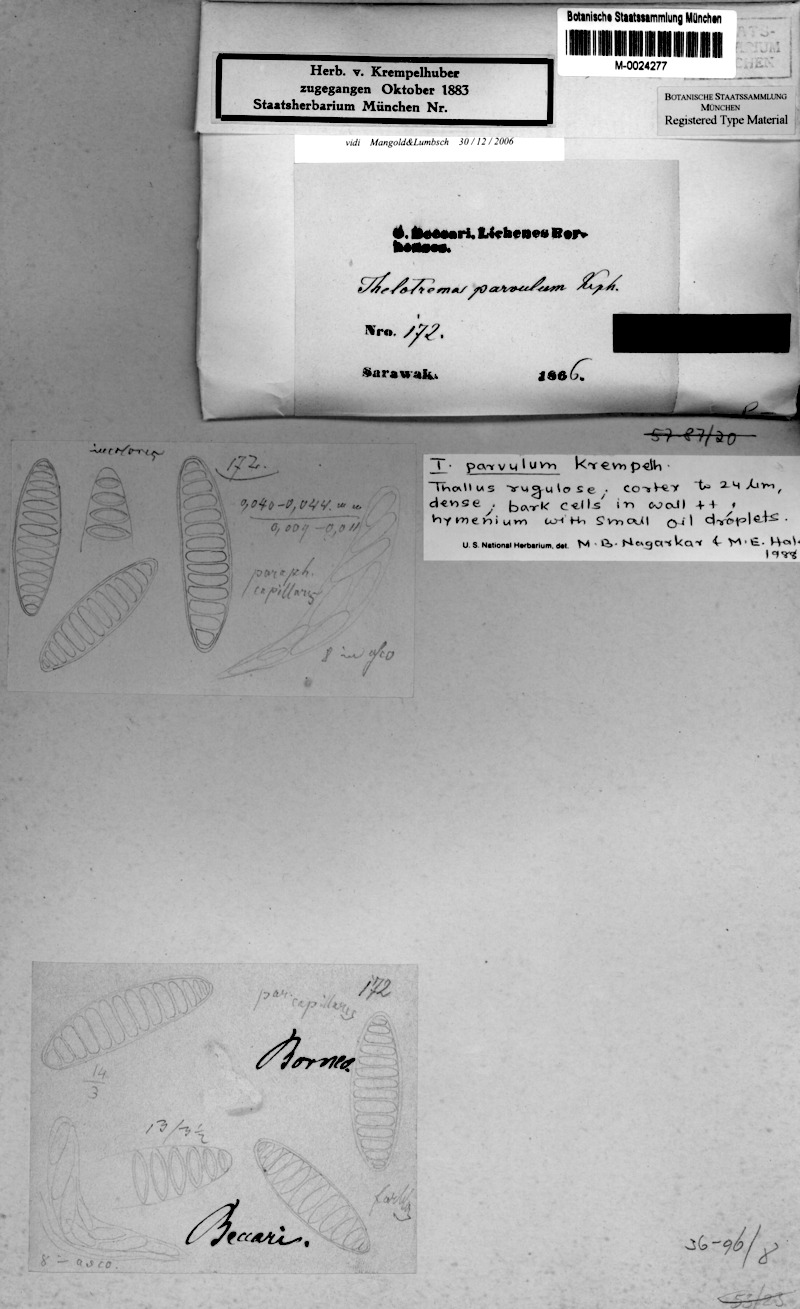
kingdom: Fungi
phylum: Ascomycota
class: Lecanoromycetes
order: Ostropales
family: Graphidaceae
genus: Ocellularia
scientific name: Ocellularia parvula
